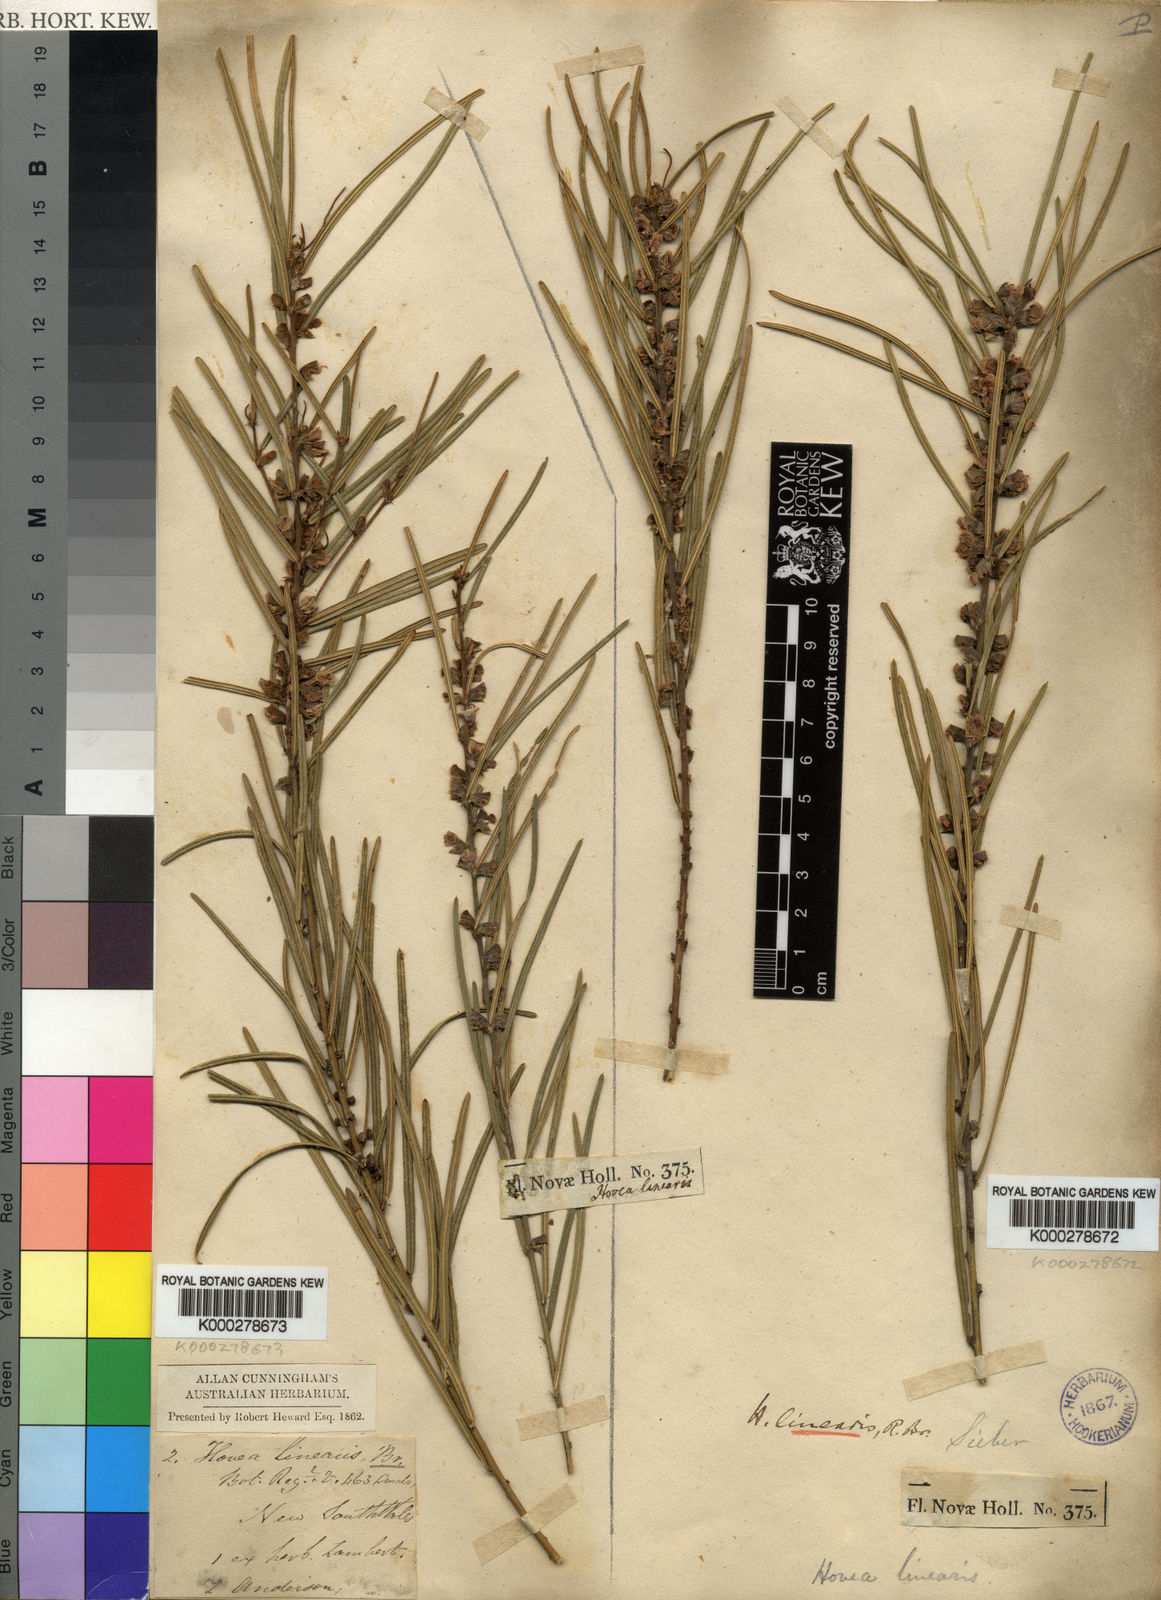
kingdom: Plantae
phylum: Tracheophyta
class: Magnoliopsida
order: Fabales
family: Fabaceae
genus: Hovea
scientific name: Hovea linearis
